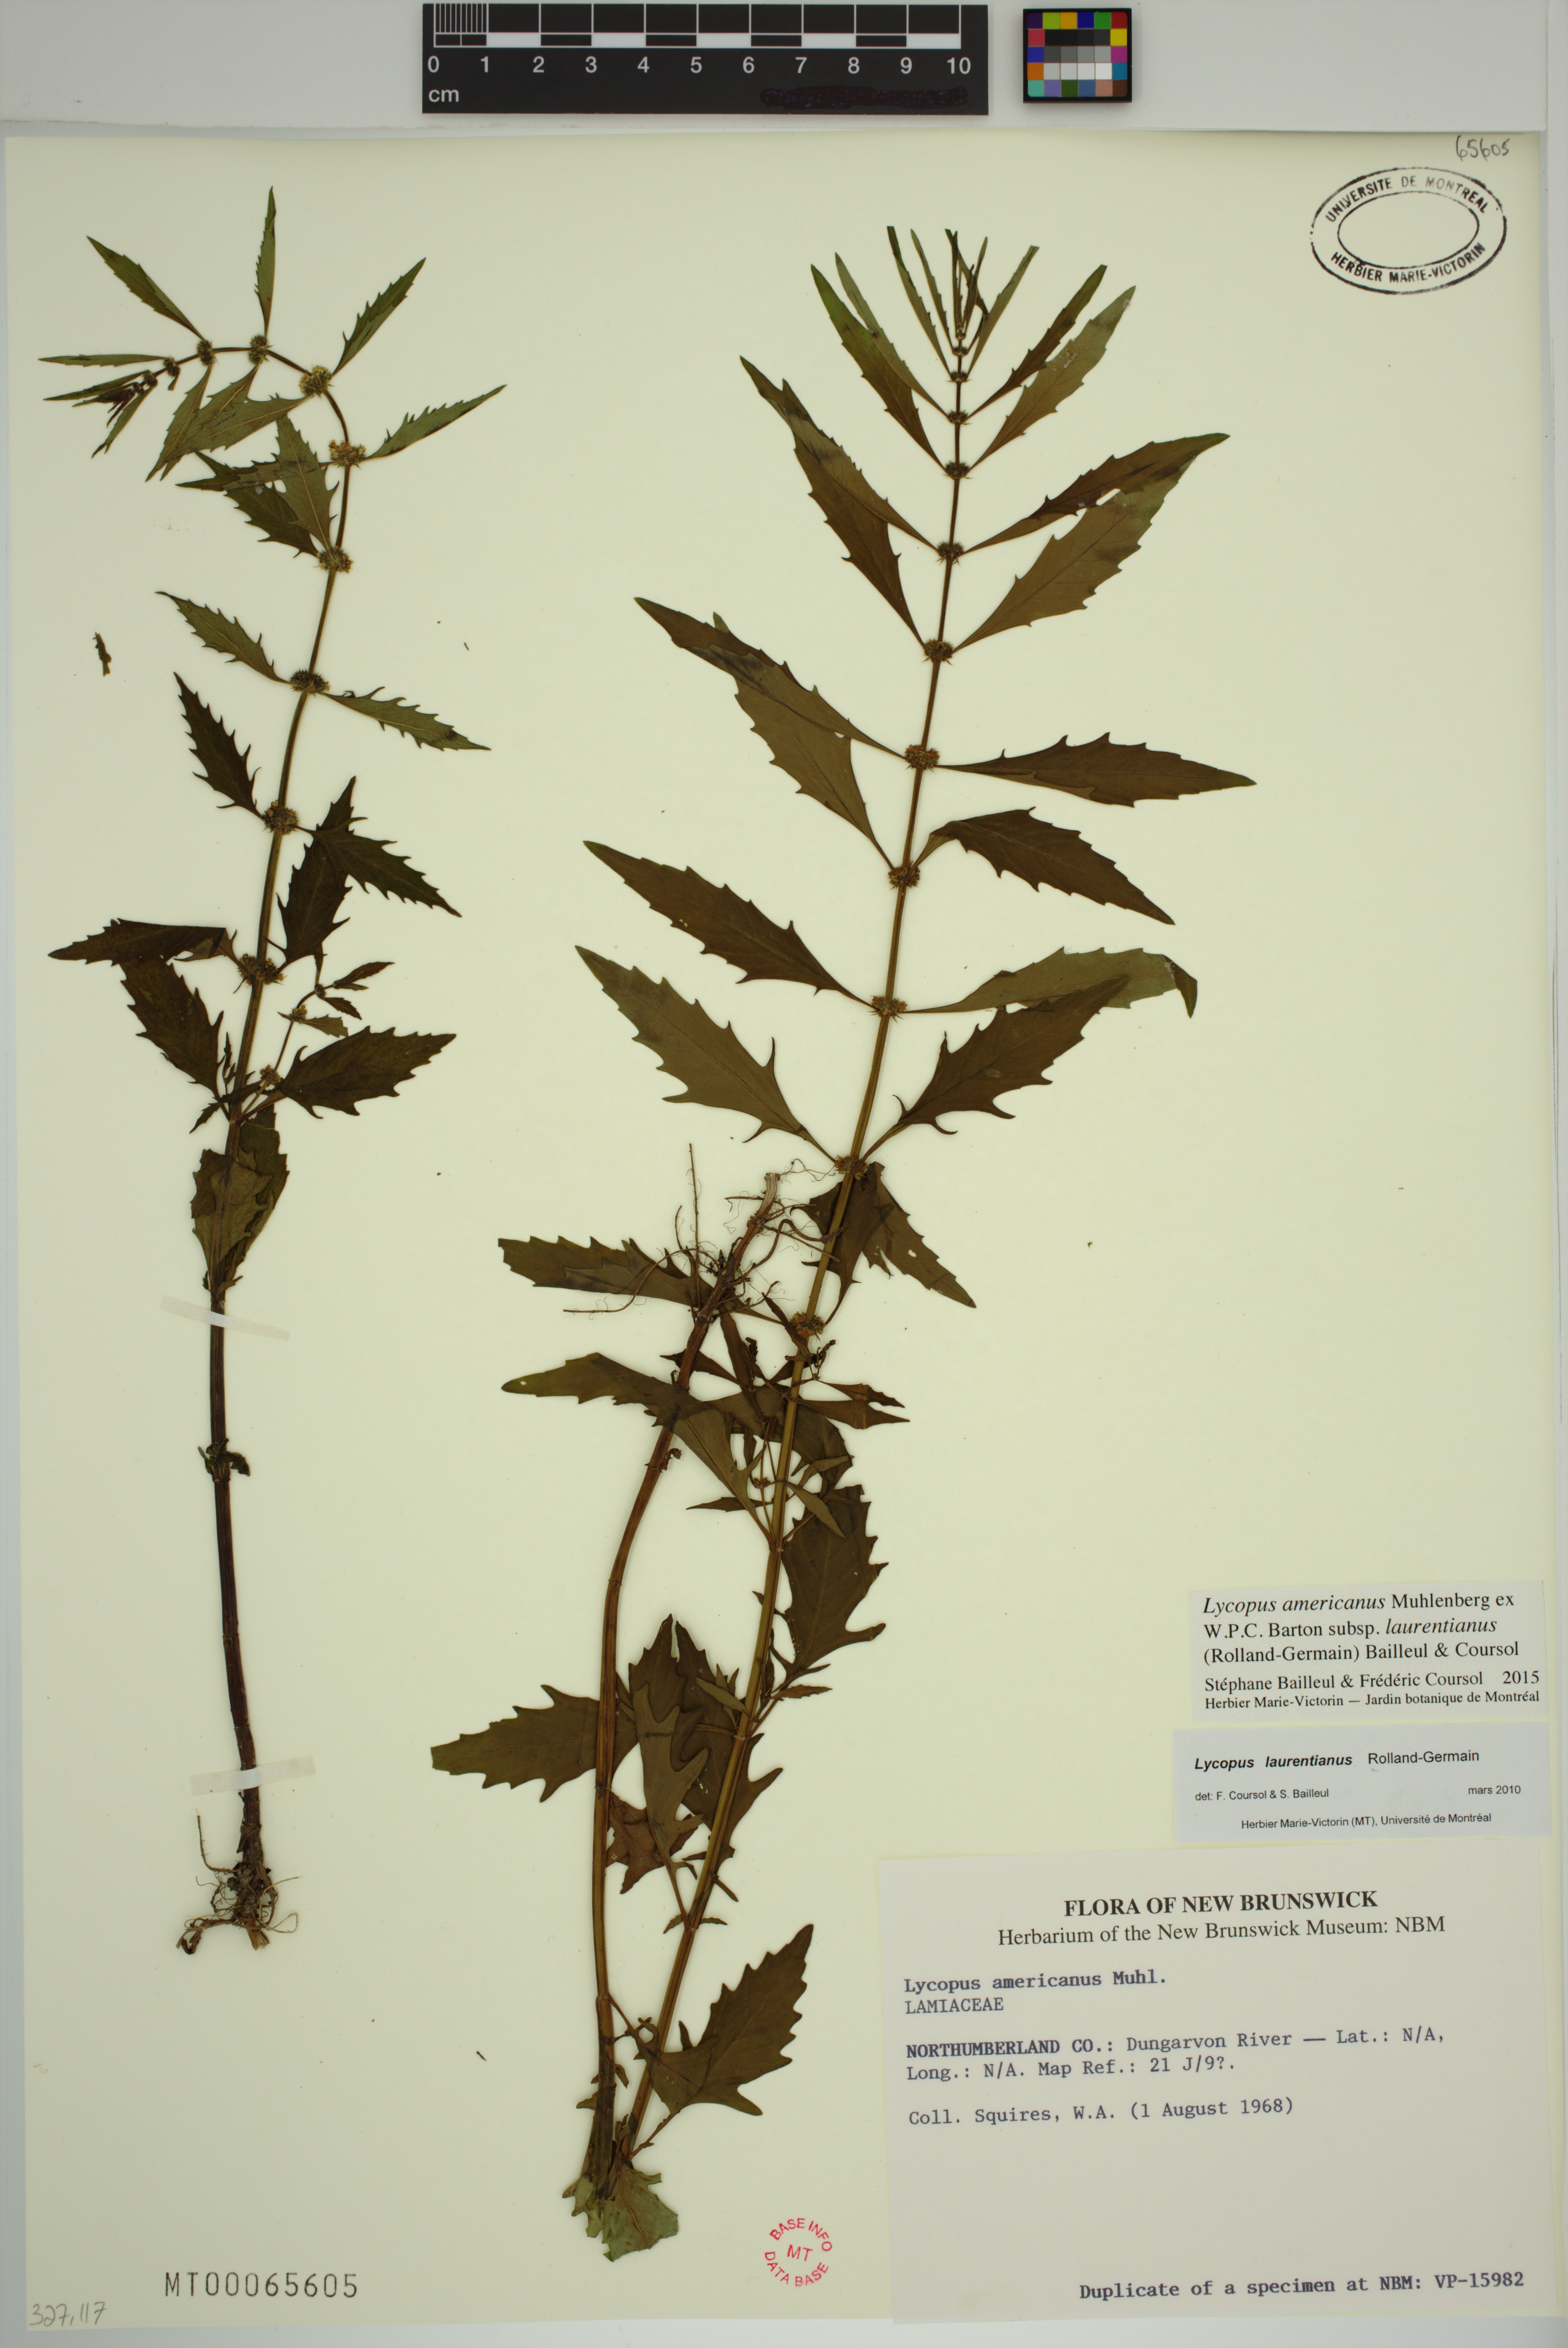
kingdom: Plantae
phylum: Tracheophyta
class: Magnoliopsida
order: Lamiales
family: Lamiaceae
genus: Lycopus
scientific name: Lycopus americanus
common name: American bugleweed
